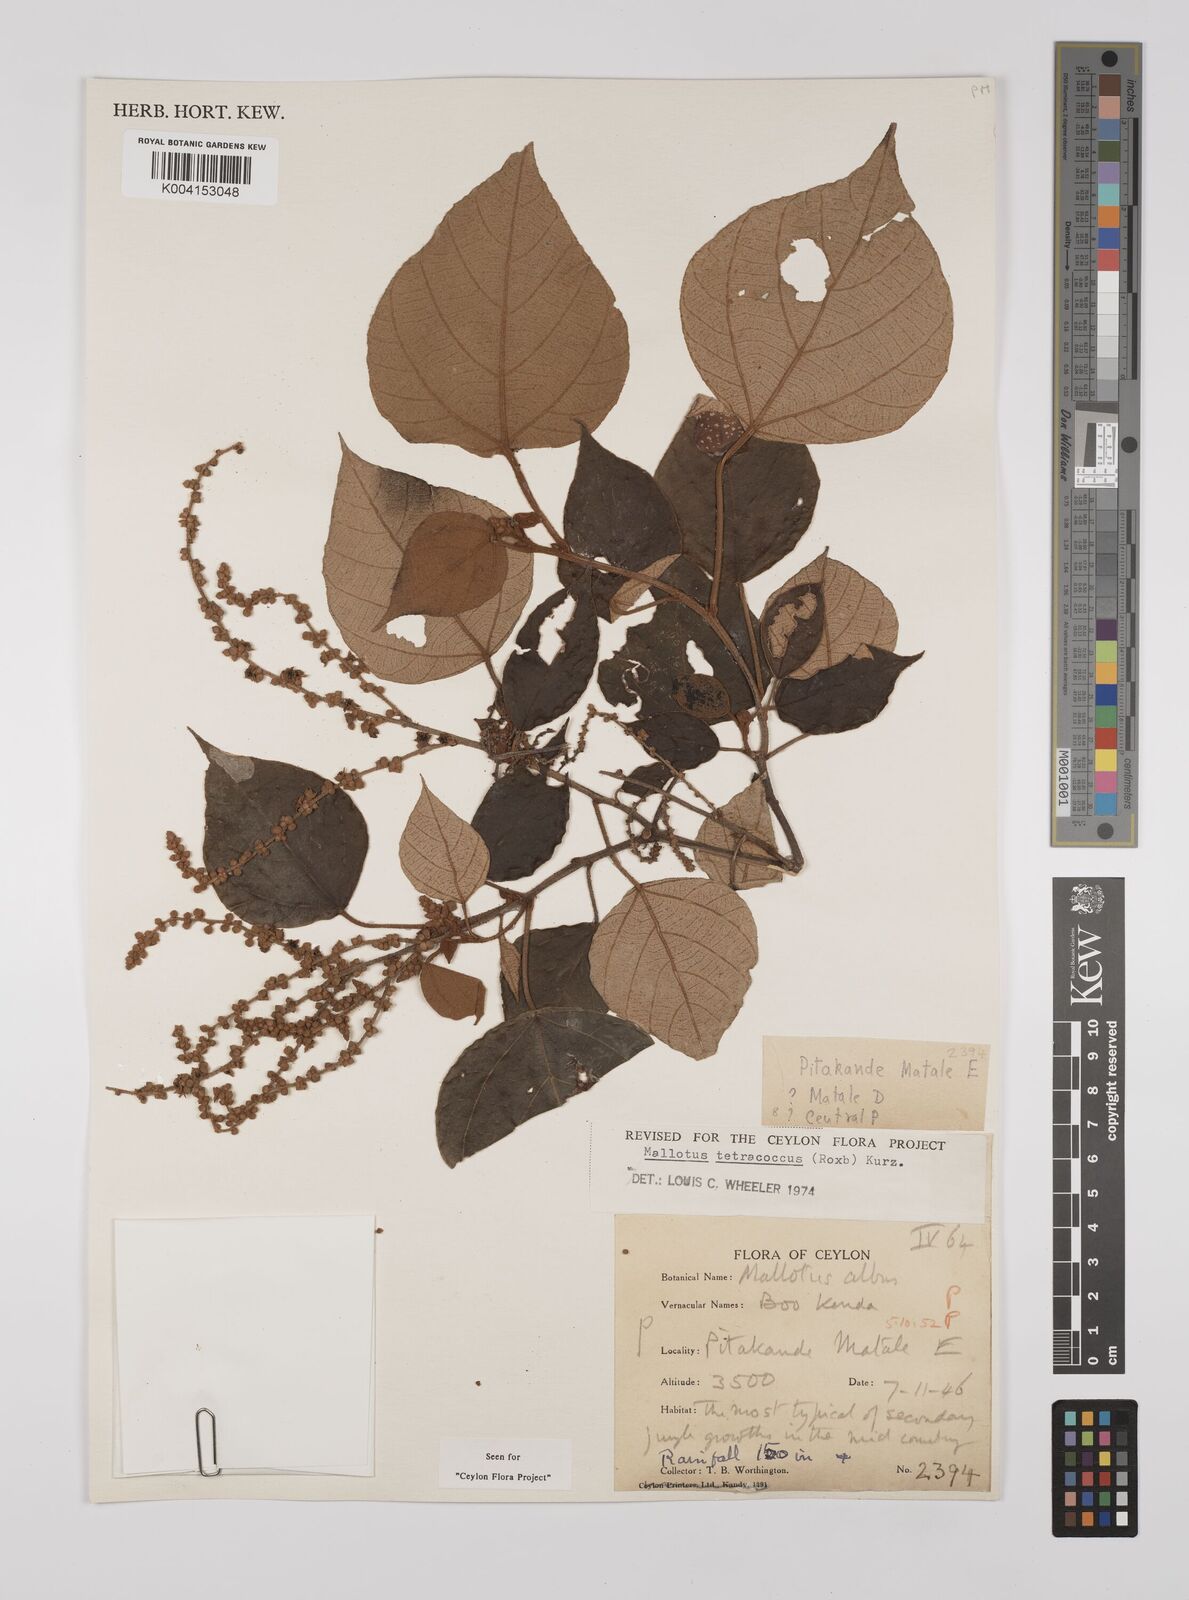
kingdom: Plantae
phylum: Tracheophyta
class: Magnoliopsida
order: Malpighiales
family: Euphorbiaceae
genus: Mallotus
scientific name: Mallotus tetracoccus
